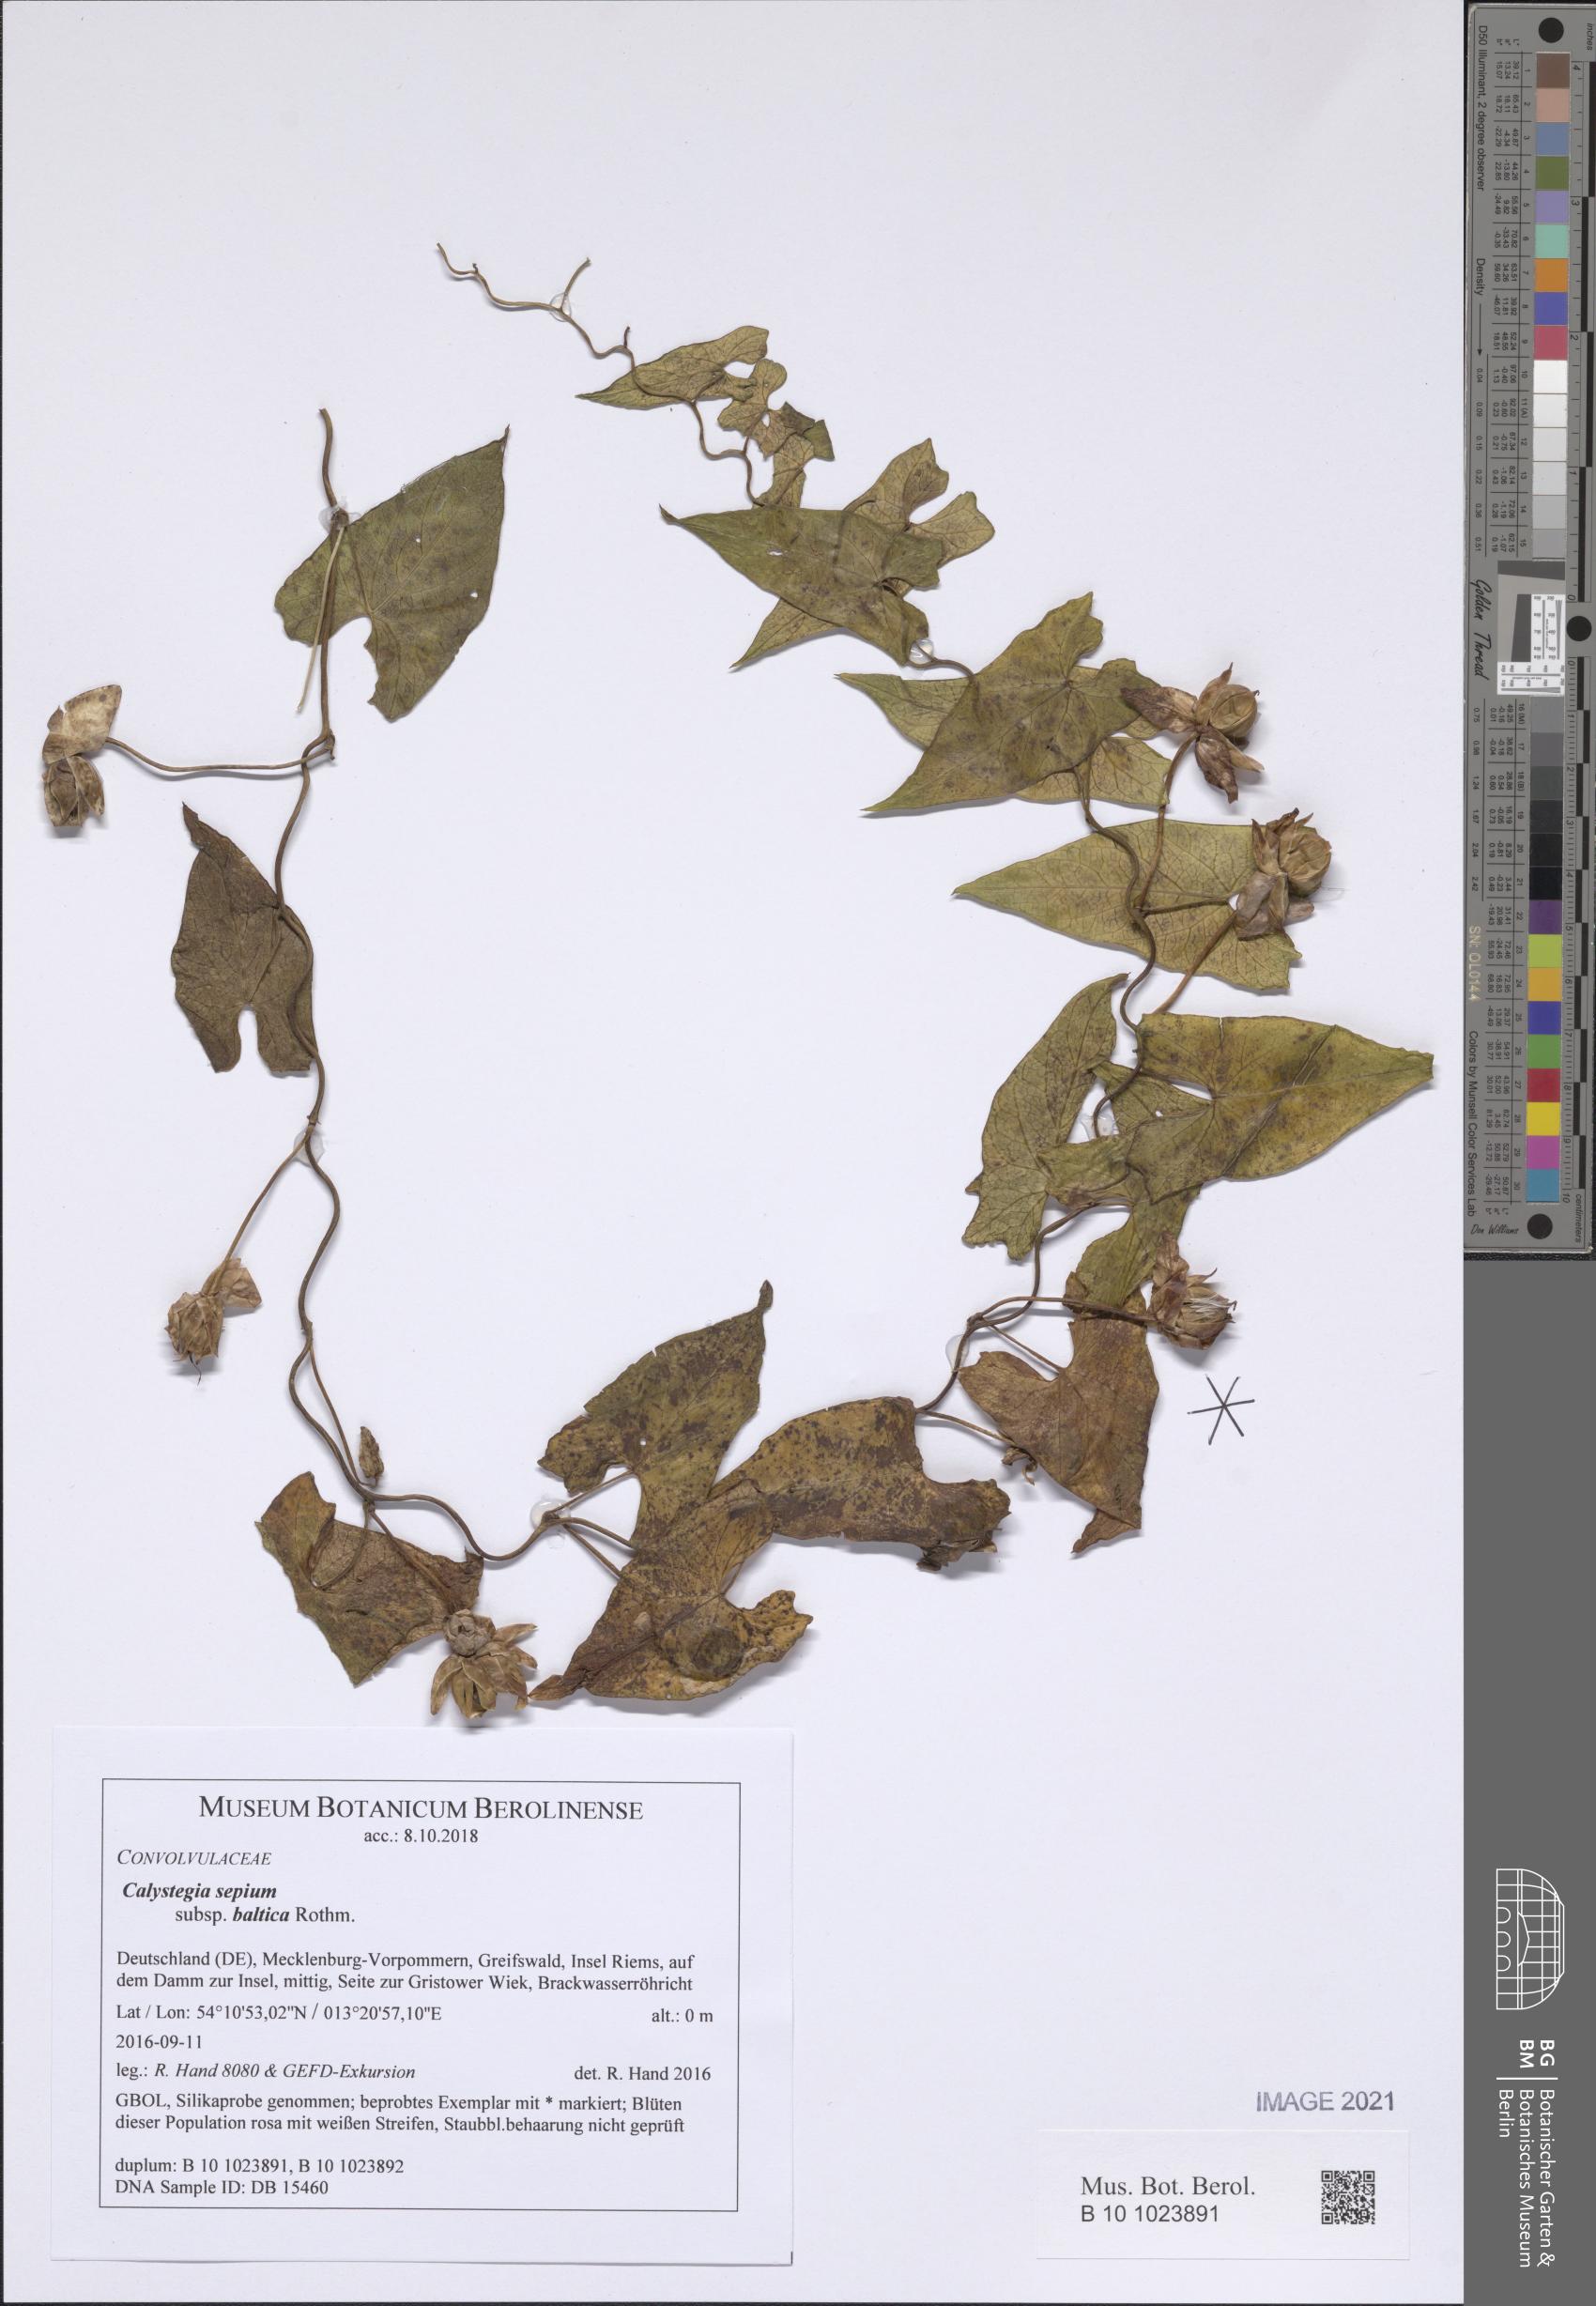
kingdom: Plantae
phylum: Tracheophyta
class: Magnoliopsida
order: Solanales
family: Convolvulaceae
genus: Calystegia
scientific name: Calystegia sepium
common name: Hedge bindweed
